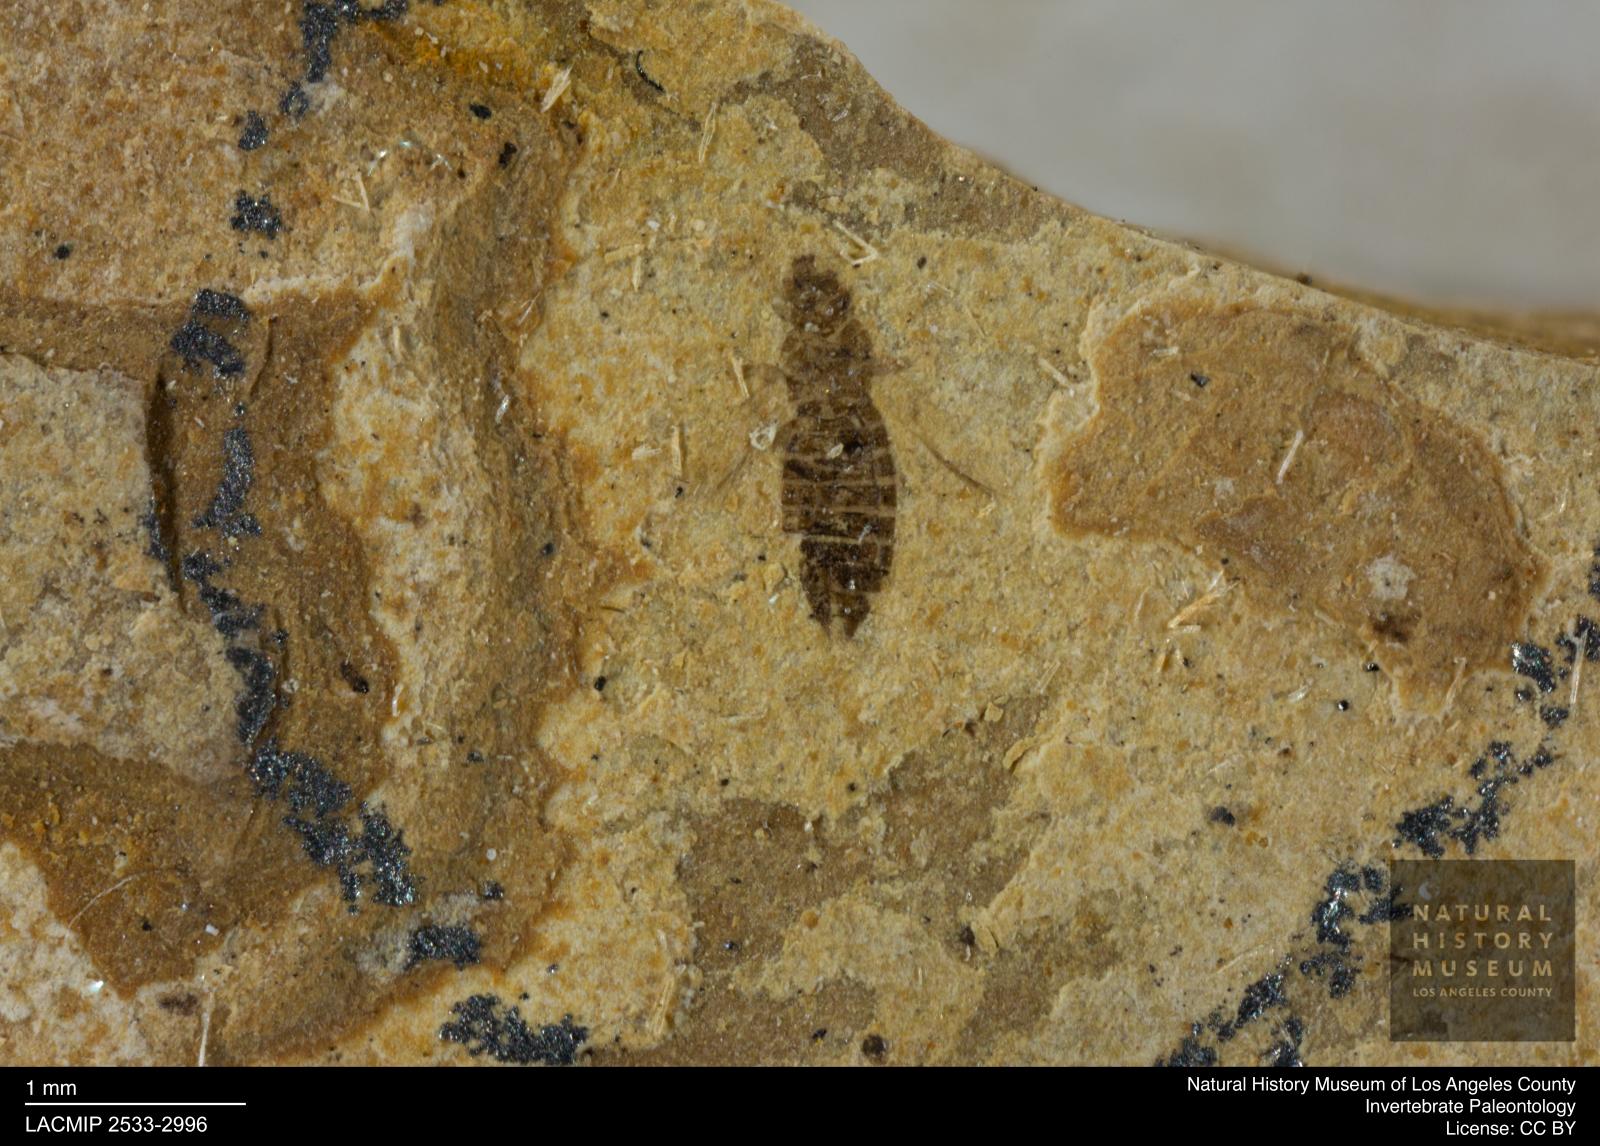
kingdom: Animalia
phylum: Arthropoda
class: Insecta
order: Thysanoptera
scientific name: Thysanoptera
